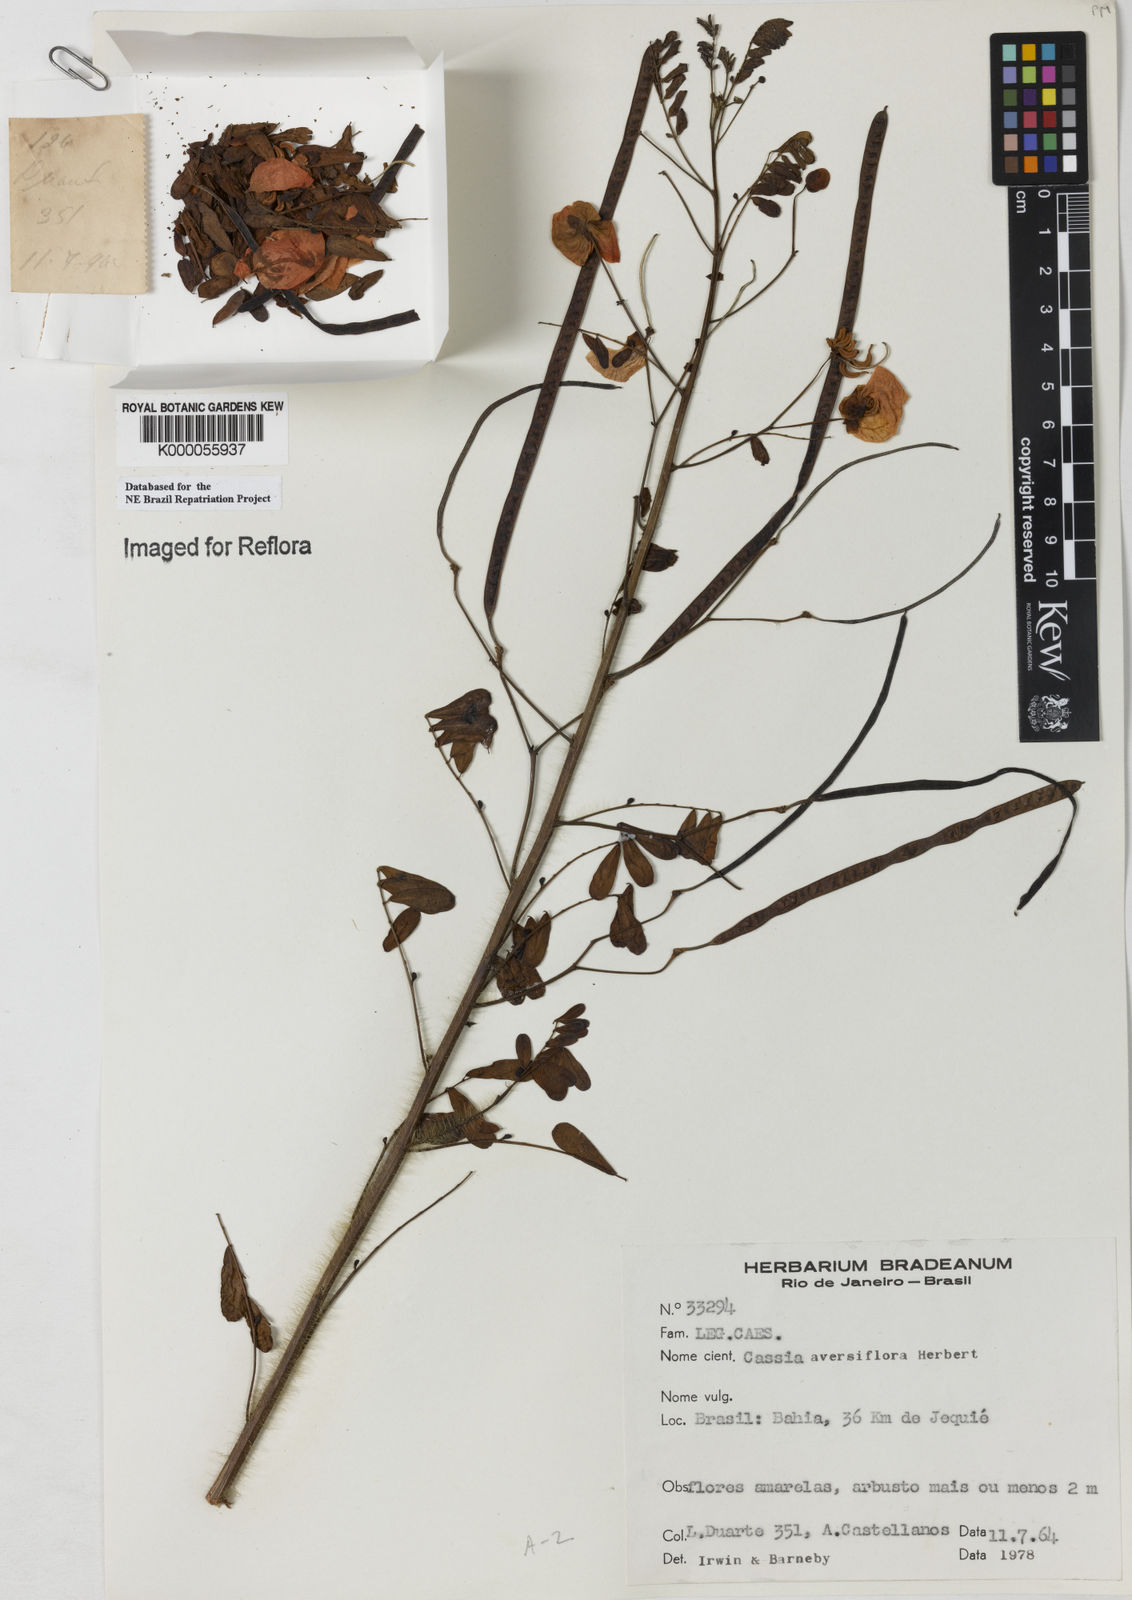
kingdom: Plantae
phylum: Tracheophyta
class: Magnoliopsida
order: Fabales
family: Fabaceae
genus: Senna
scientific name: Senna aversiflora
